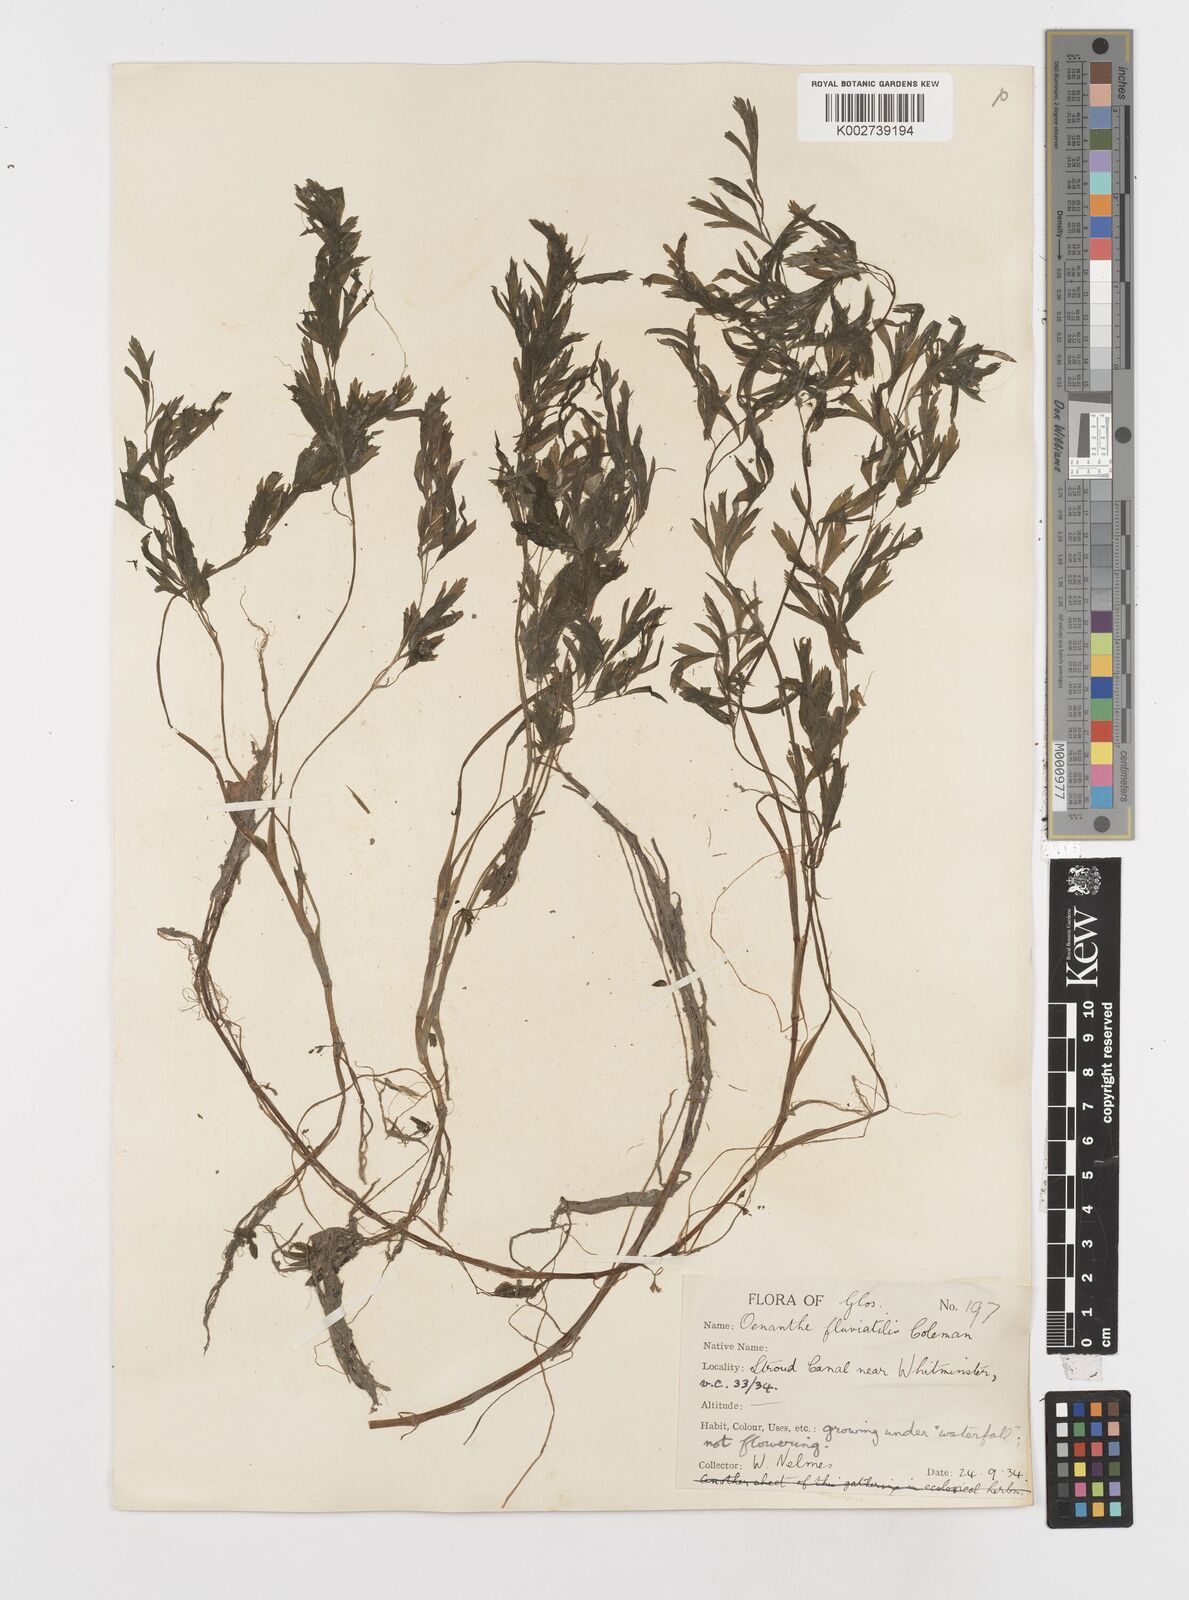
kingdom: Plantae
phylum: Tracheophyta
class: Magnoliopsida
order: Apiales
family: Apiaceae
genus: Oenanthe
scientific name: Oenanthe fluviatilis
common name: River water-dropwort
